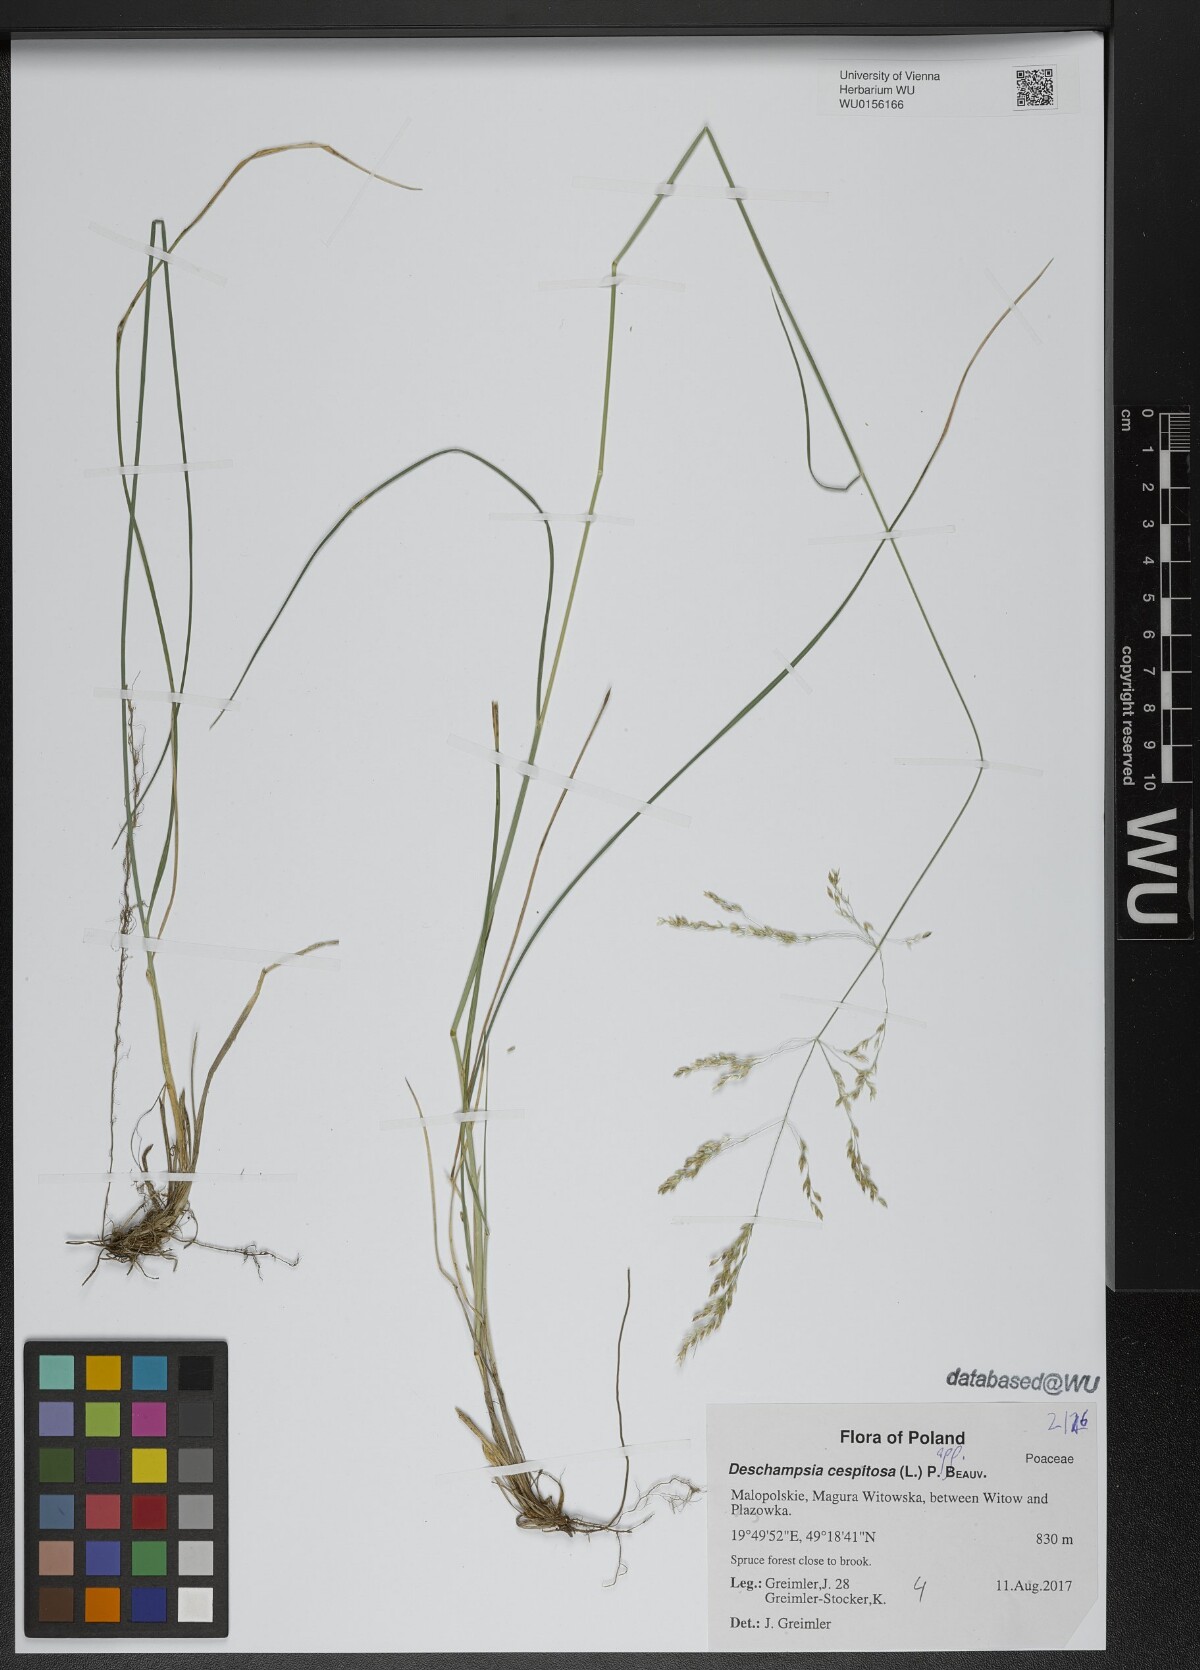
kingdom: Plantae
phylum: Tracheophyta
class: Liliopsida
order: Poales
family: Poaceae
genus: Deschampsia
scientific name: Deschampsia cespitosa
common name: Tufted hair-grass
